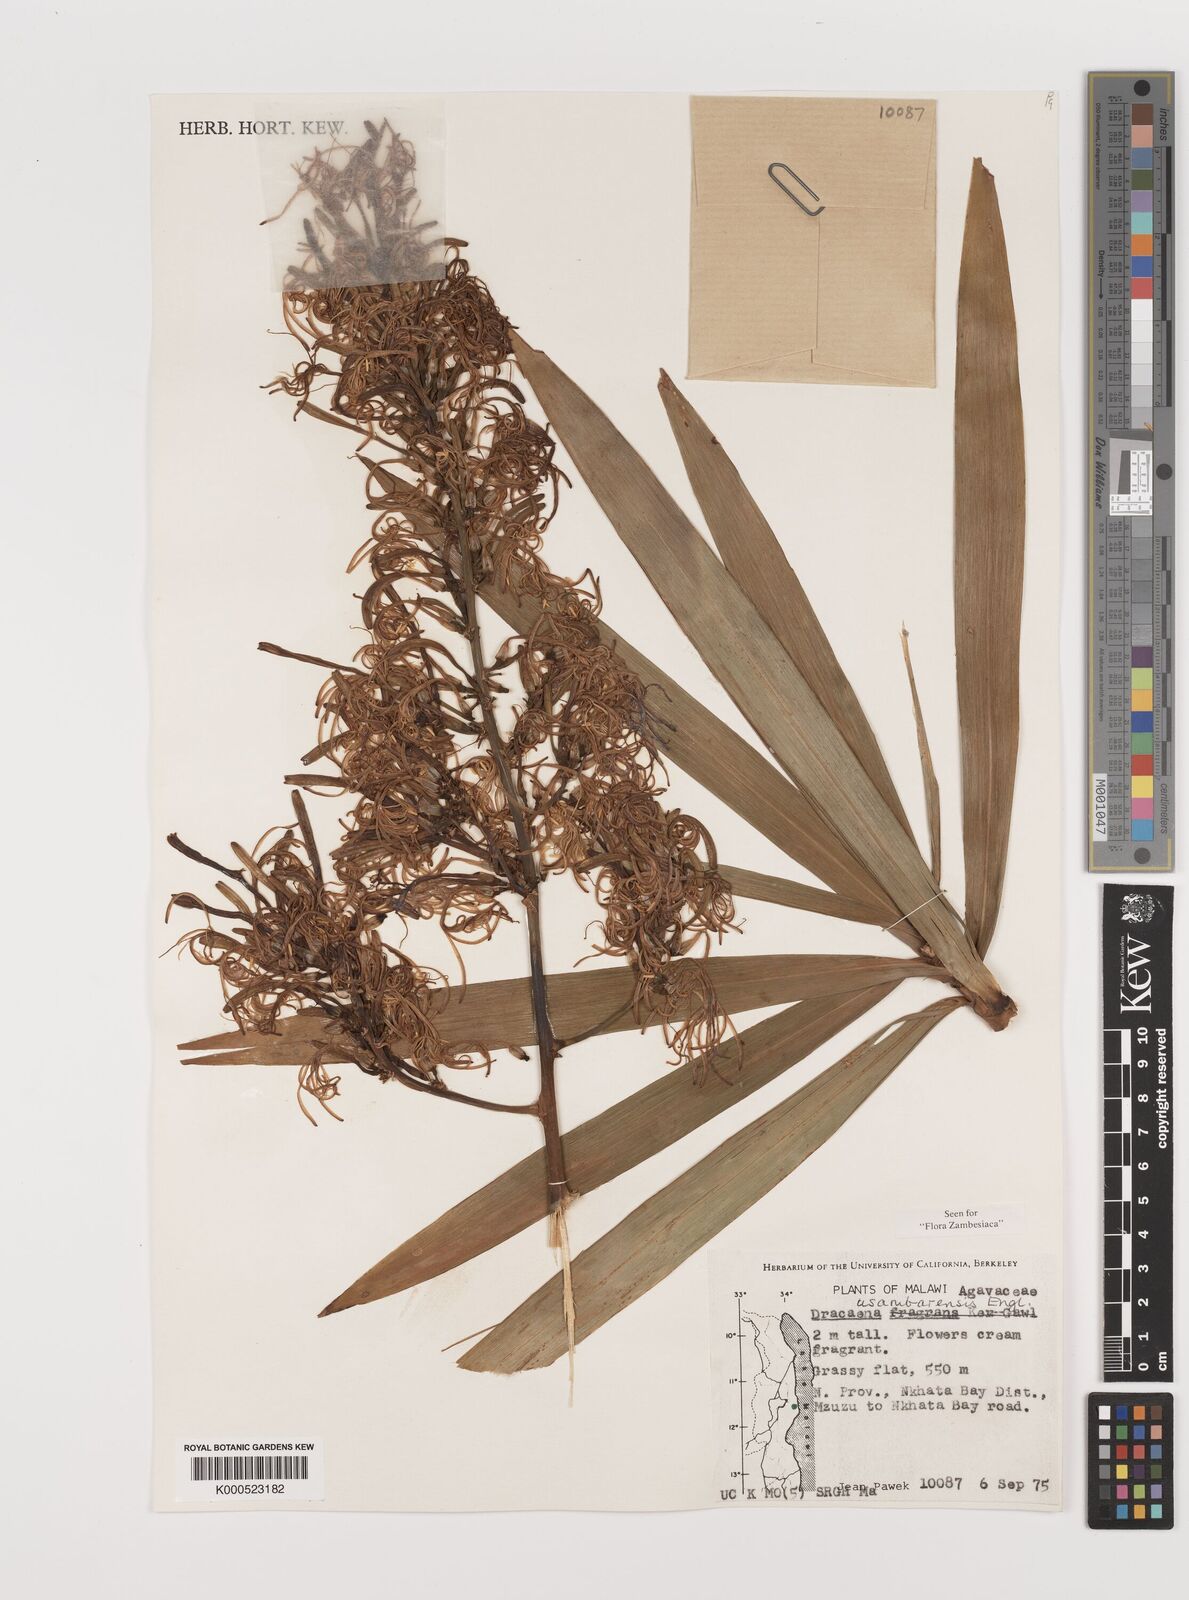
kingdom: Plantae
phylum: Tracheophyta
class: Liliopsida
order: Asparagales
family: Asparagaceae
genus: Dracaena
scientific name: Dracaena usambarensis
